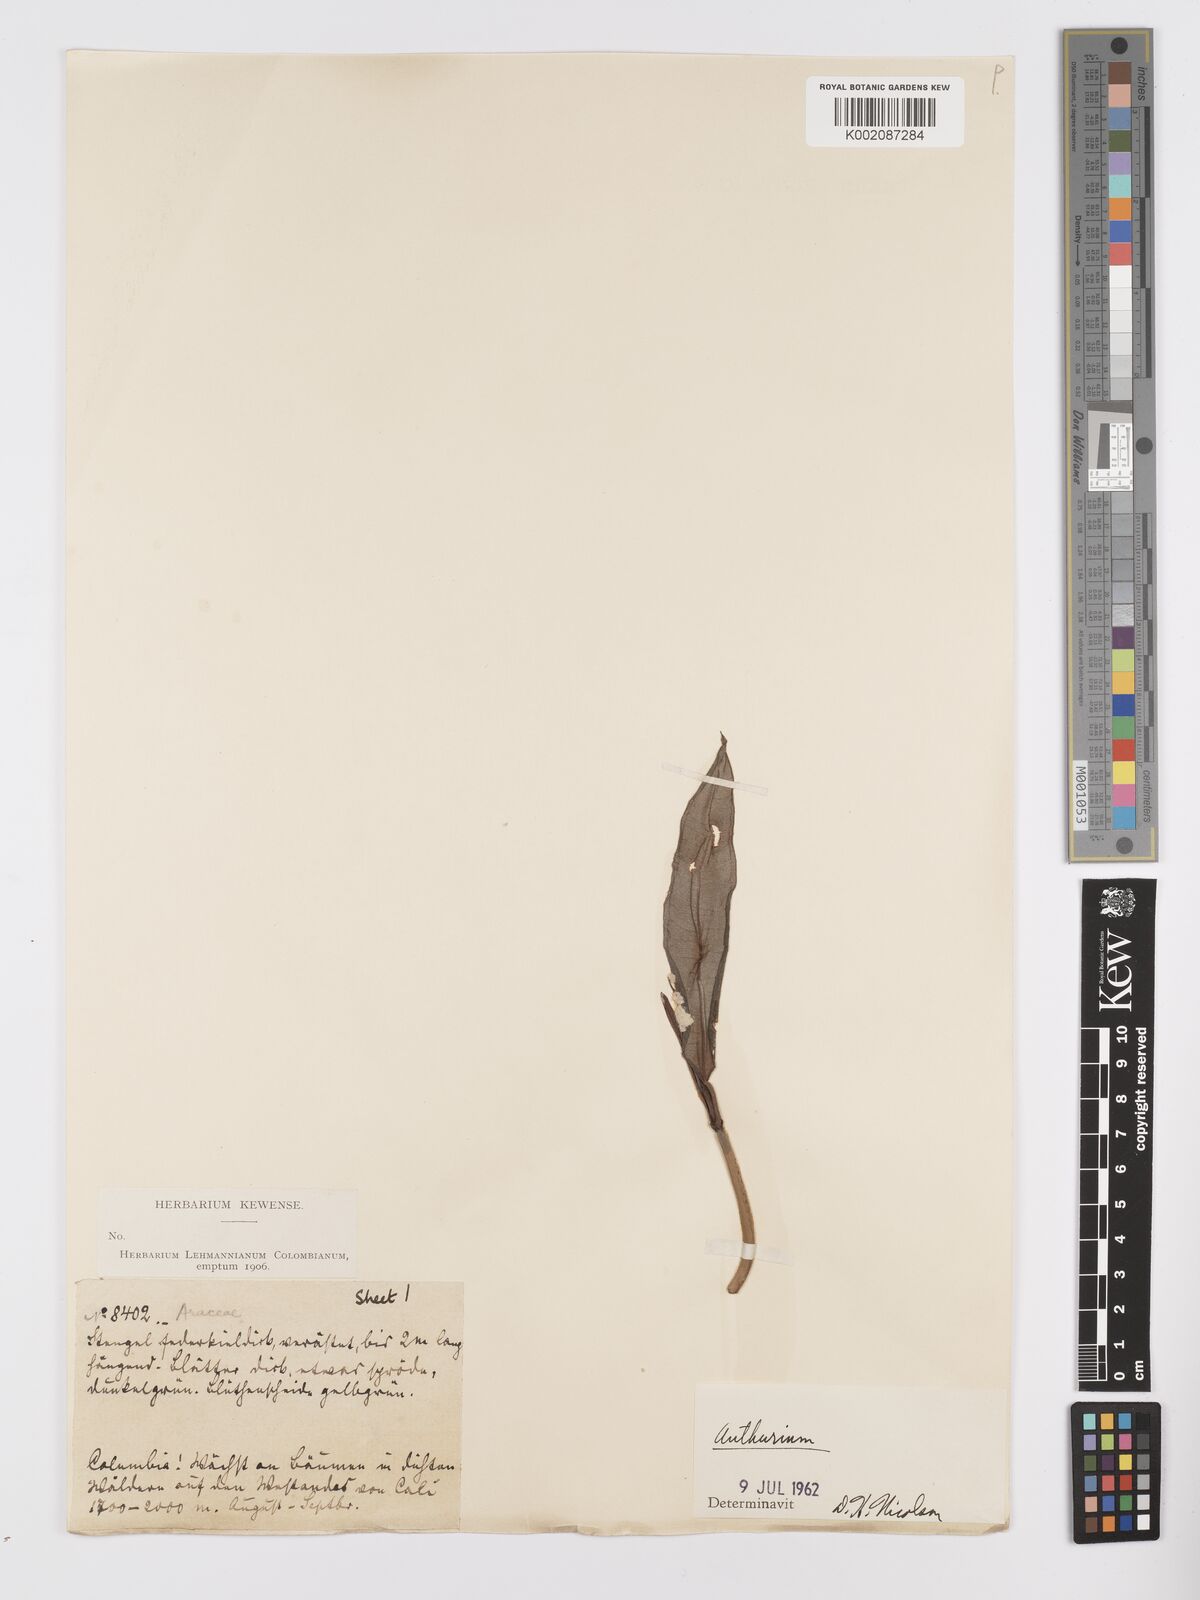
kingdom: Plantae
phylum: Tracheophyta
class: Liliopsida
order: Alismatales
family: Araceae
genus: Anthurium
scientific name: Anthurium
